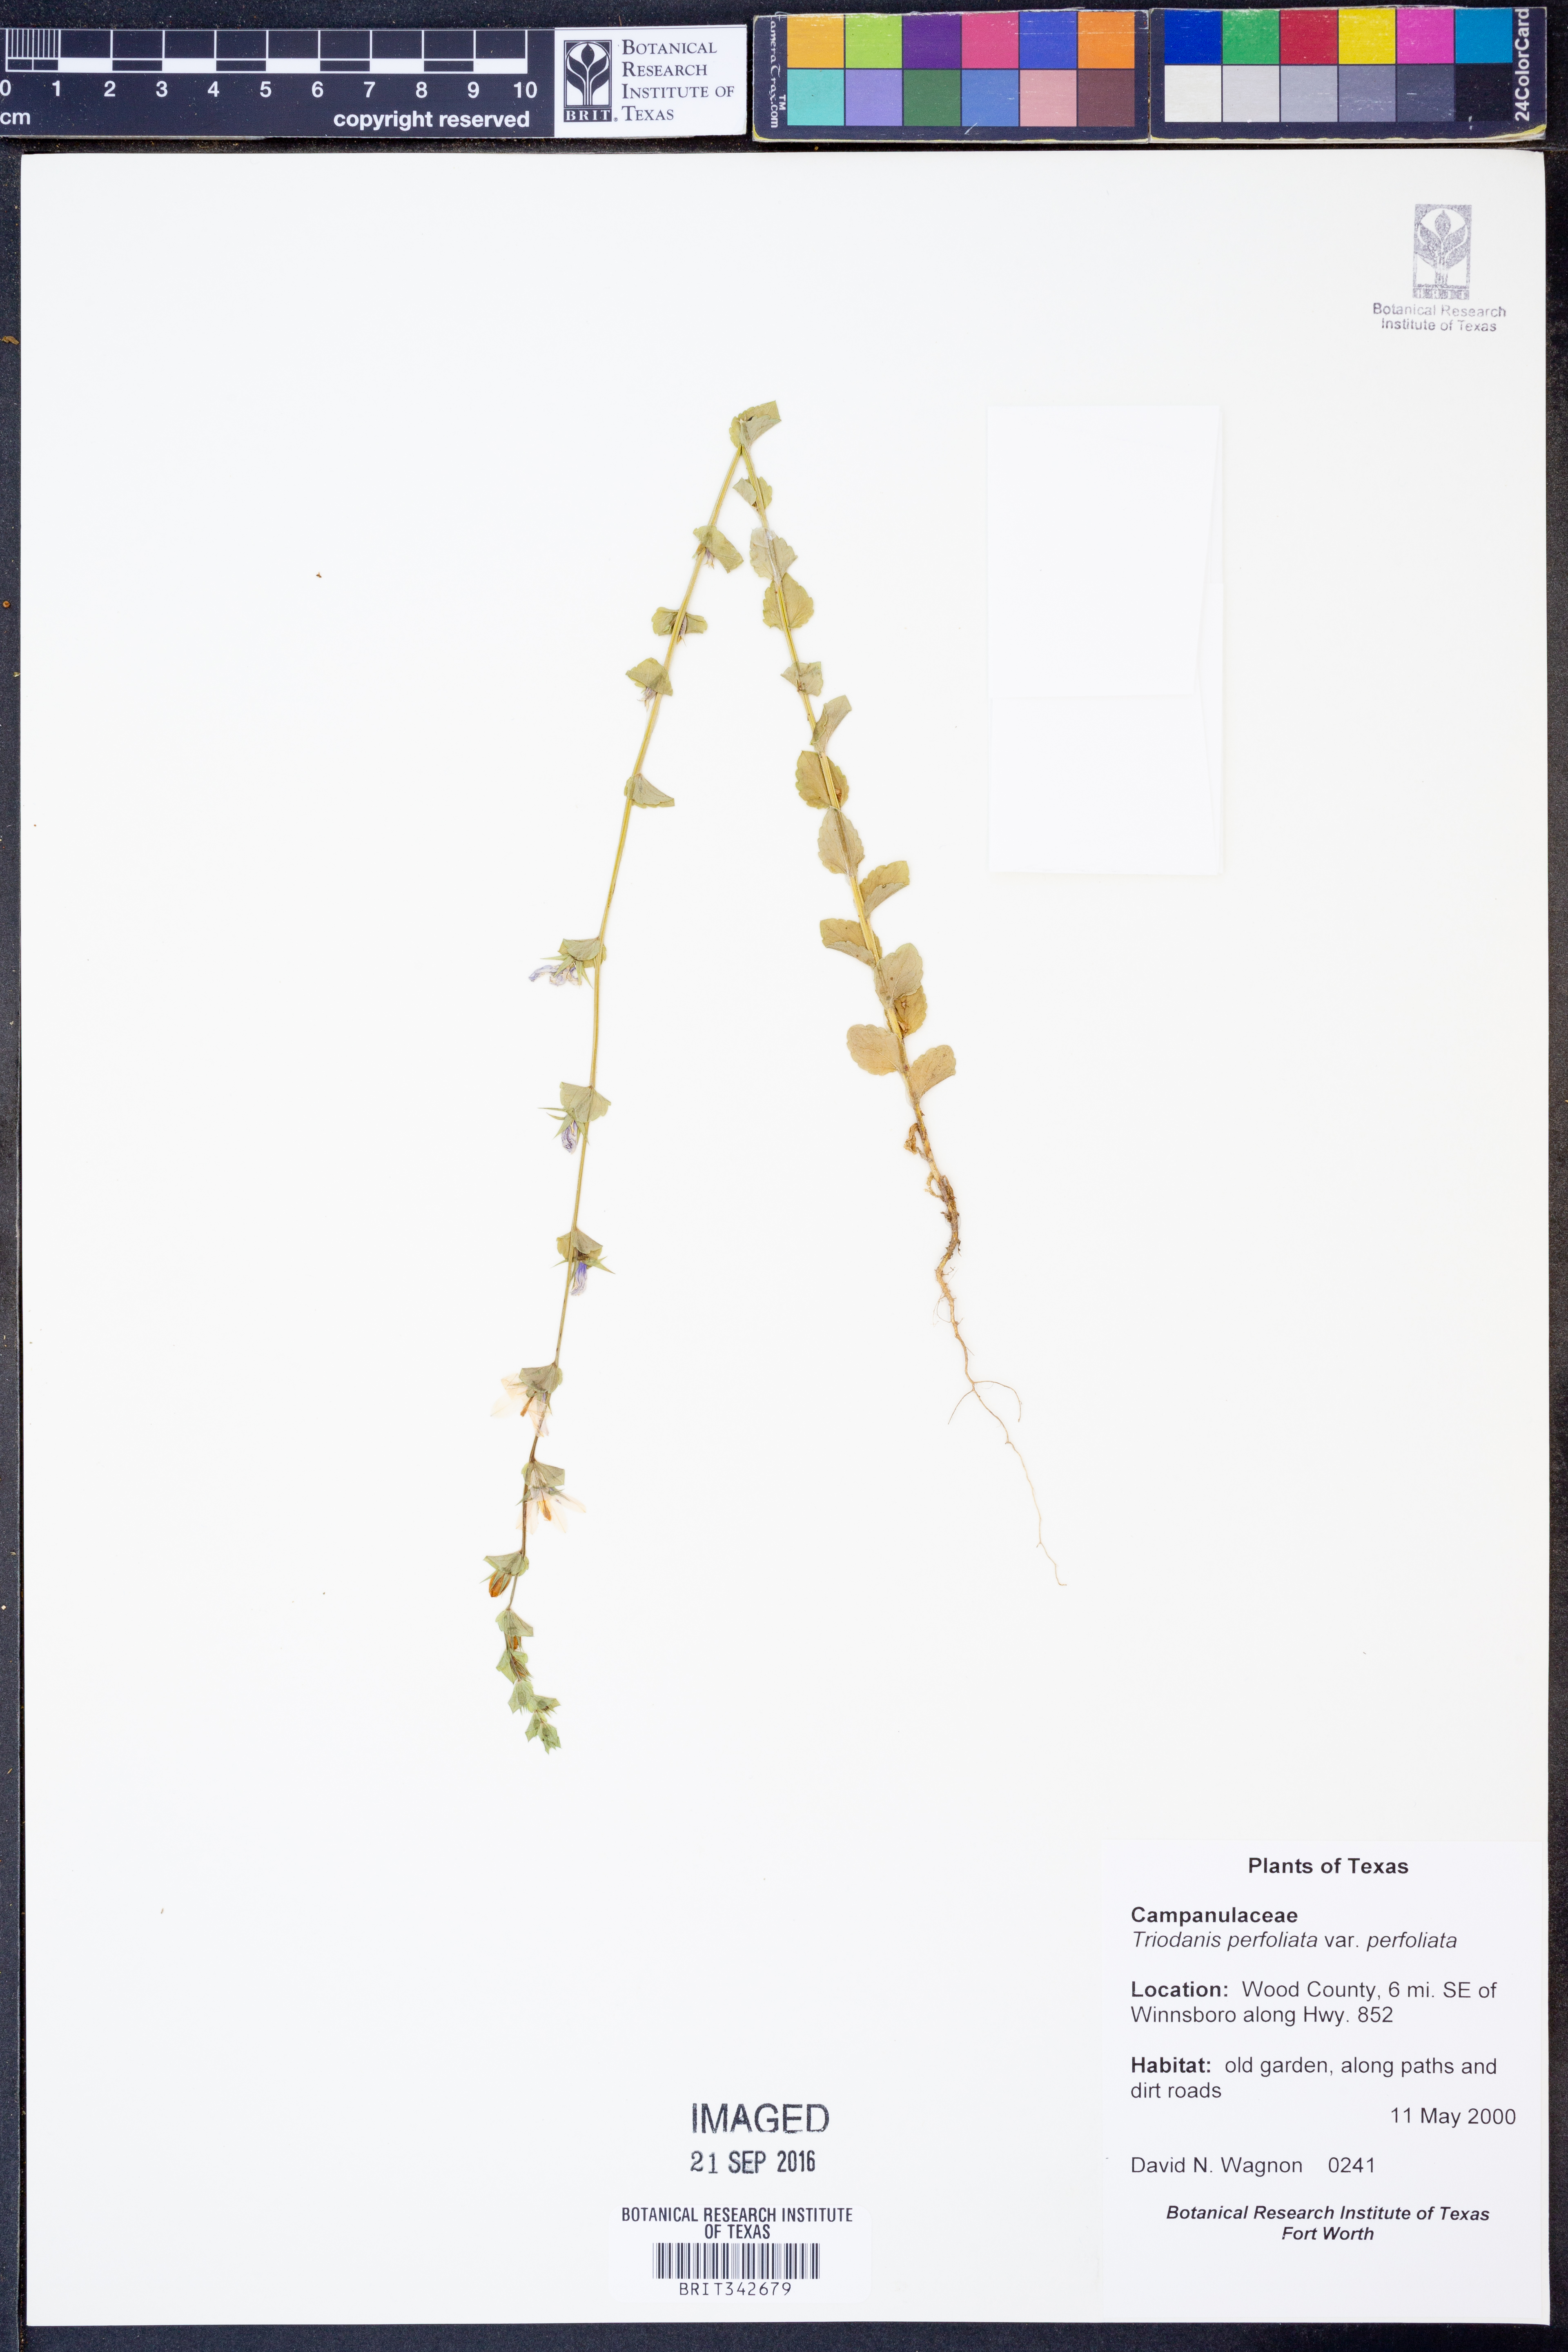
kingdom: Plantae
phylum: Tracheophyta
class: Magnoliopsida
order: Asterales
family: Campanulaceae
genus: Triodanis
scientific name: Triodanis perfoliata
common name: Clasping venus' looking-glass
